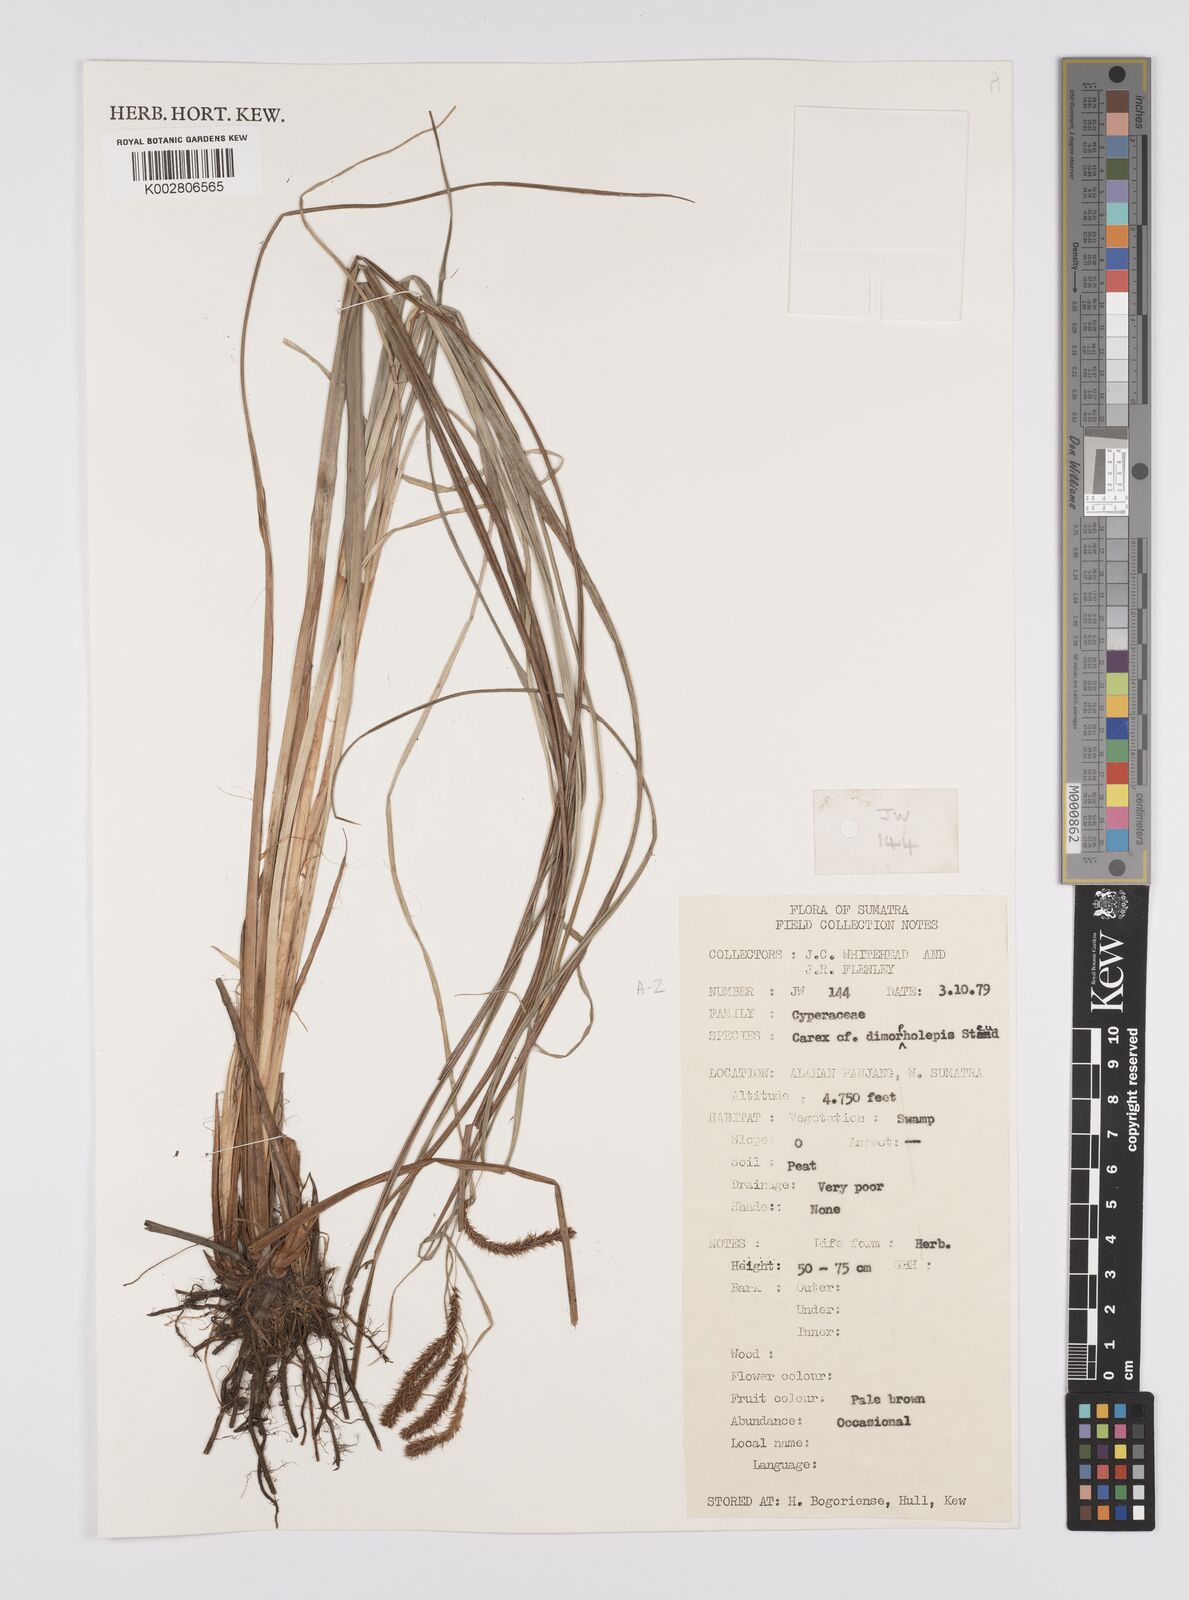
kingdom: Plantae
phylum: Tracheophyta
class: Liliopsida
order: Poales
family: Cyperaceae
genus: Carex
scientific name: Carex
